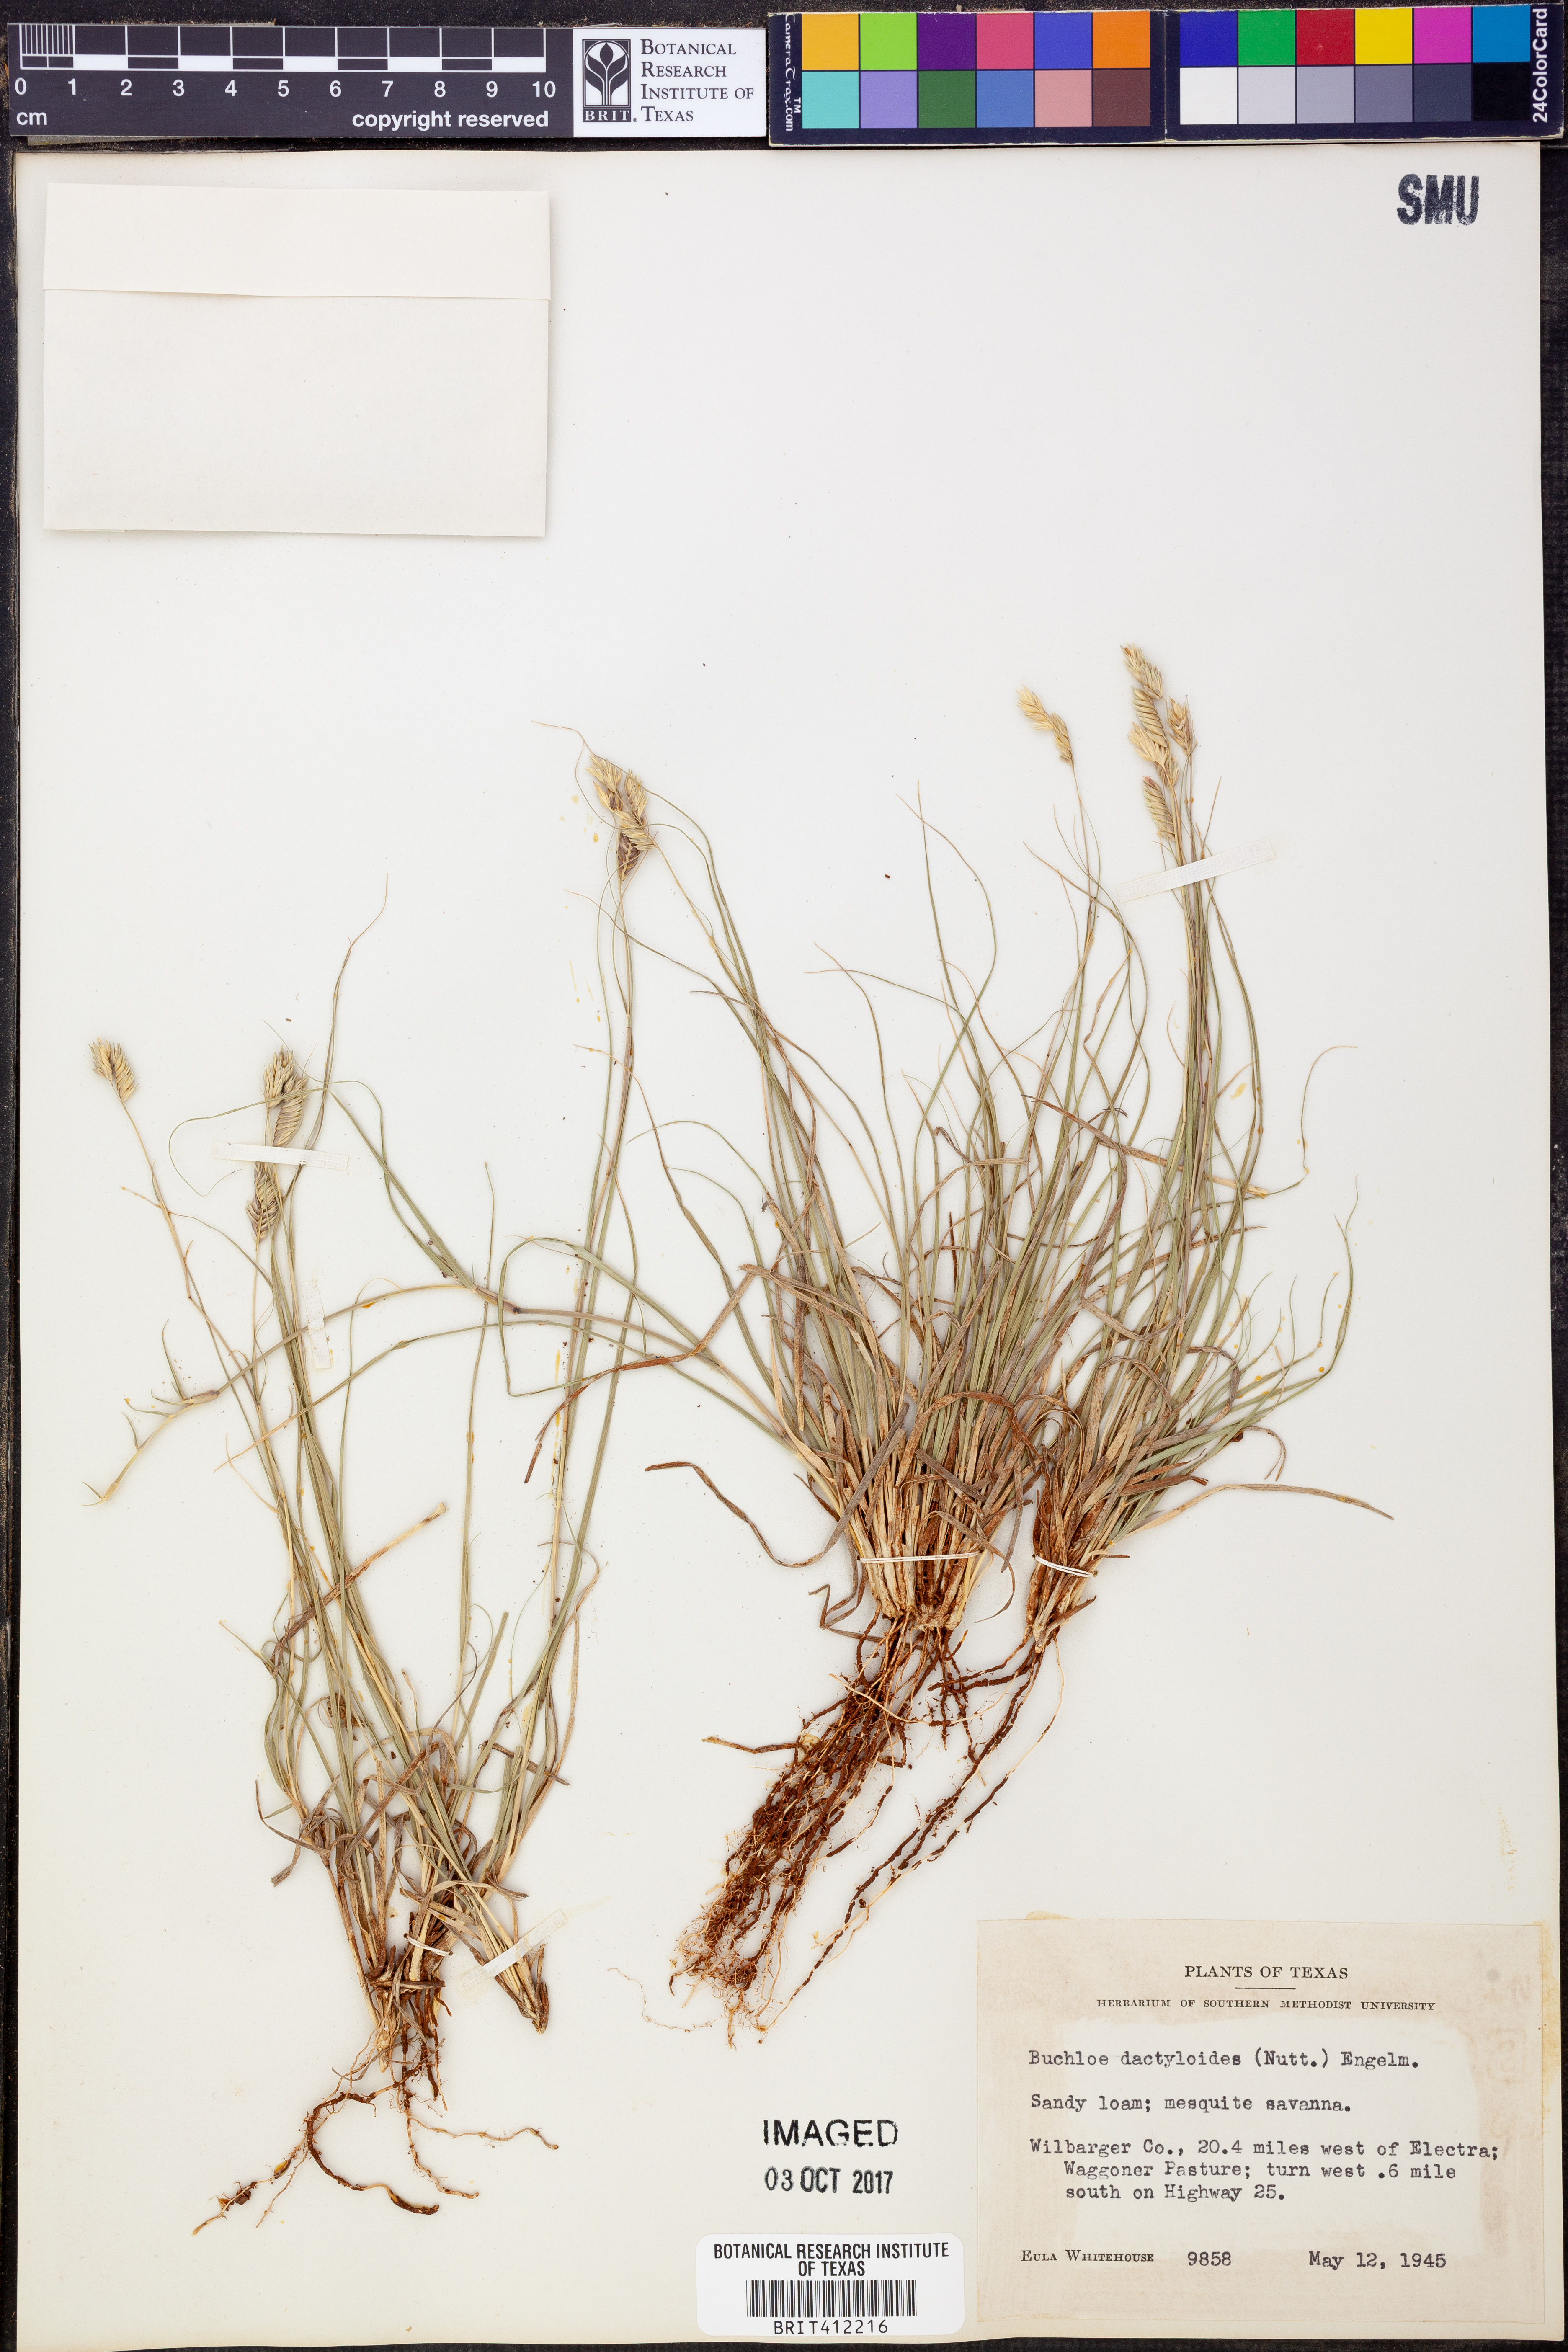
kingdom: Plantae
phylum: Tracheophyta
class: Liliopsida
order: Poales
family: Poaceae
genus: Bouteloua
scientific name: Bouteloua dactyloides
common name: Buffalo grass
